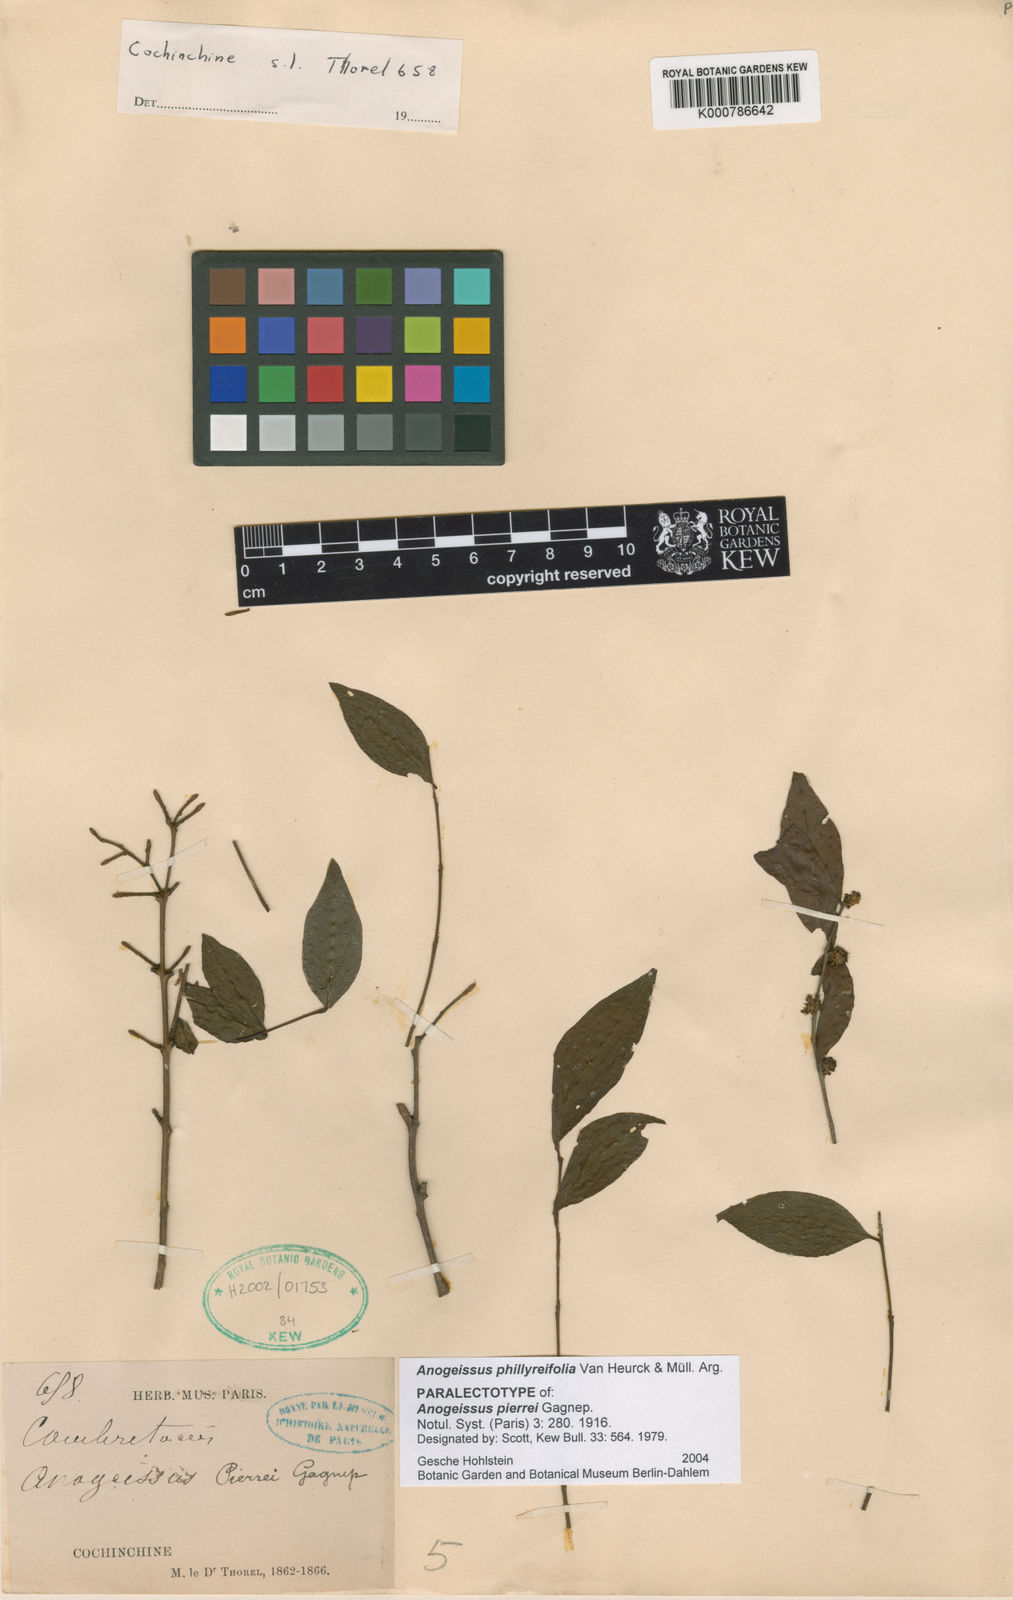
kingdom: Plantae
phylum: Tracheophyta
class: Magnoliopsida
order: Myrtales
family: Combretaceae
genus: Anogeissus
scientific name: Anogeissus
